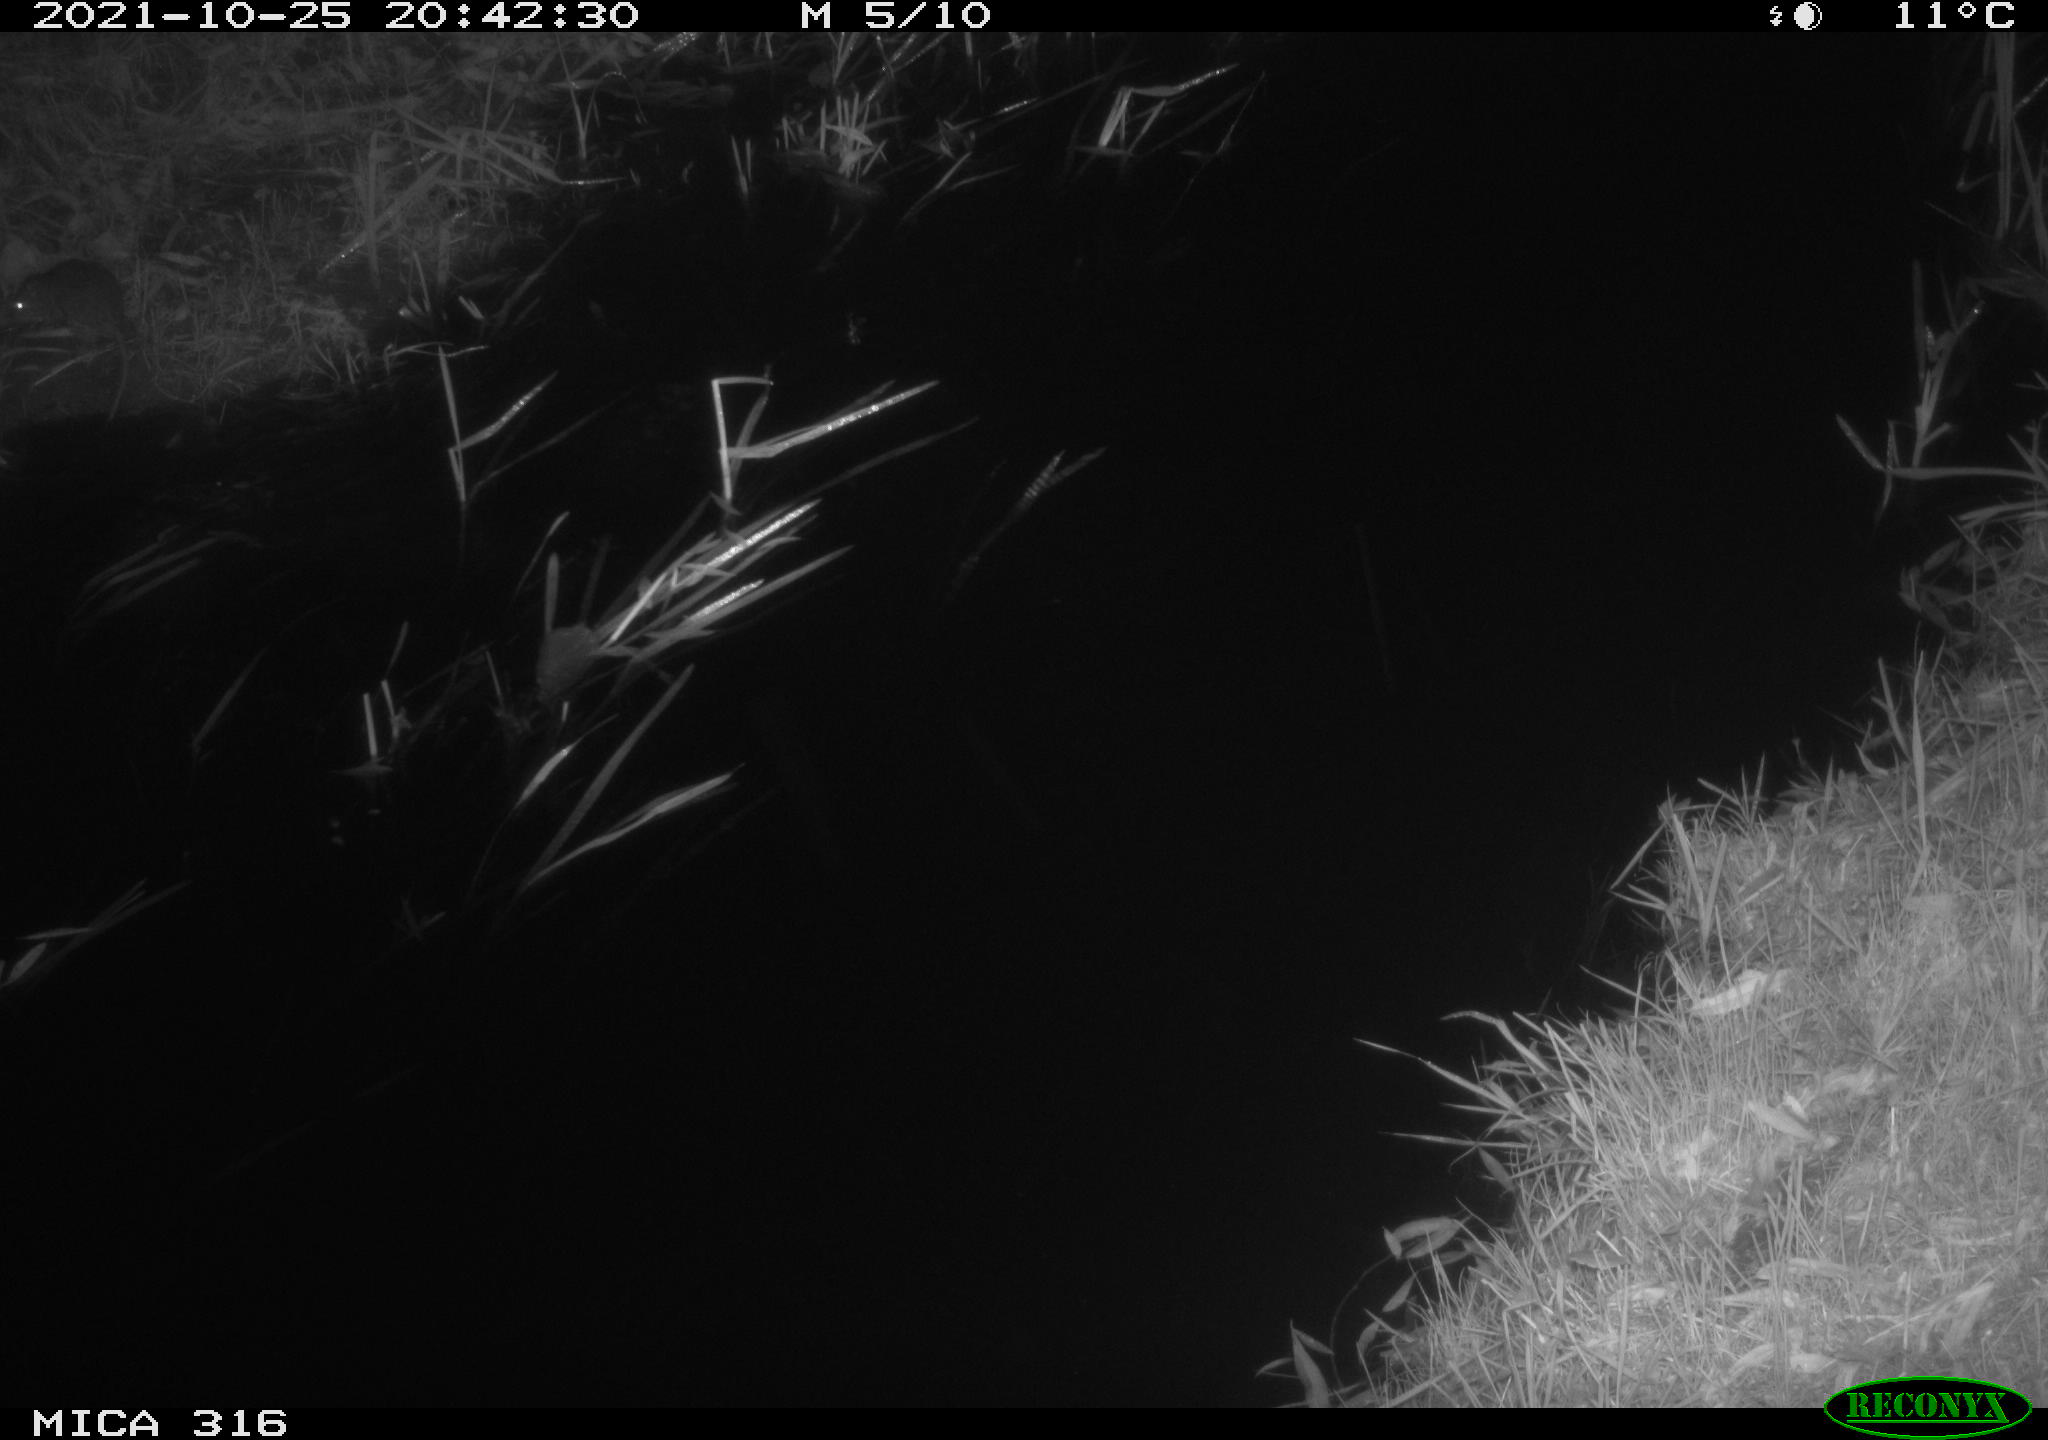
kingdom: Animalia
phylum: Chordata
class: Mammalia
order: Rodentia
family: Muridae
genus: Rattus
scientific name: Rattus norvegicus
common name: Brown rat
